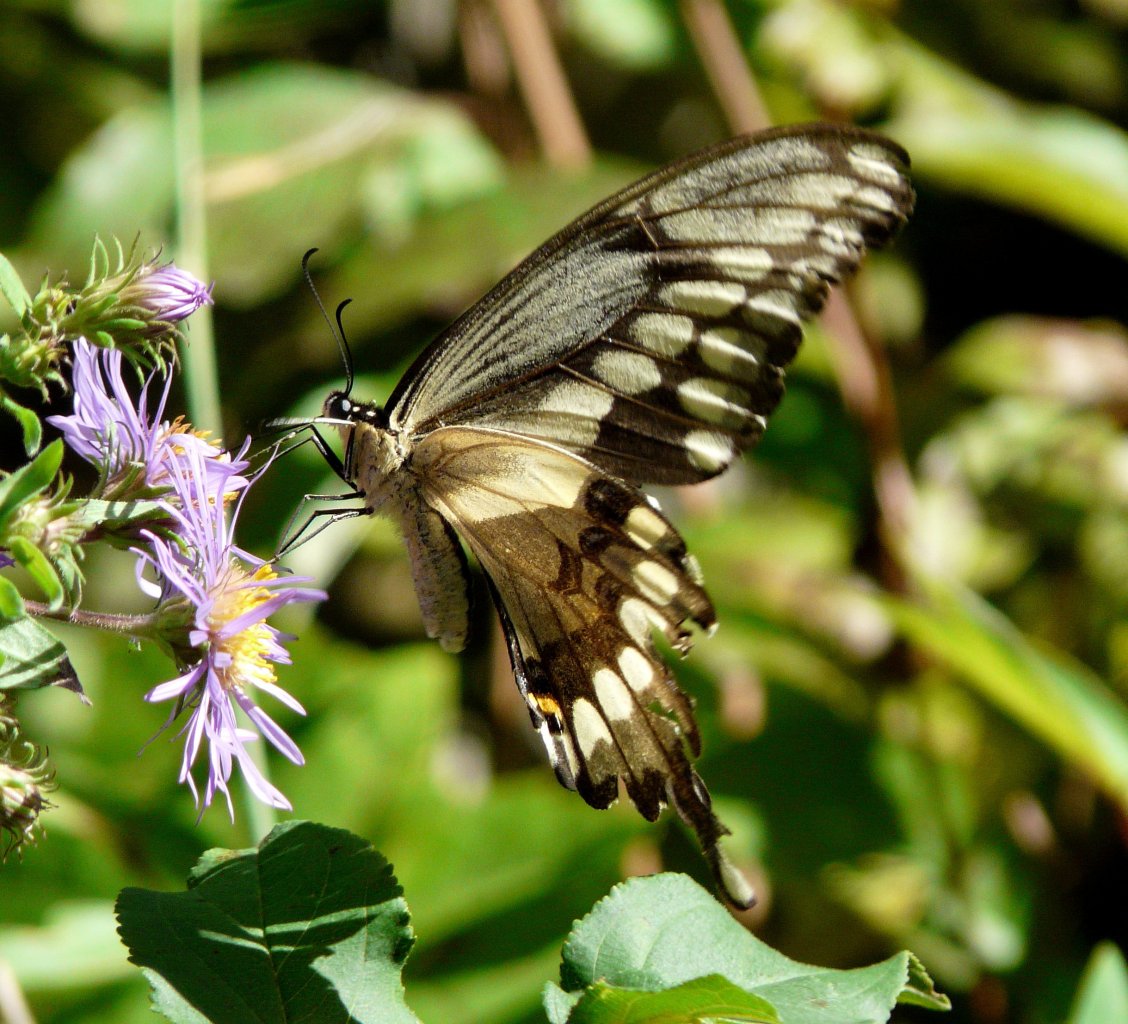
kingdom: Animalia
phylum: Arthropoda
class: Insecta
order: Lepidoptera
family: Papilionidae
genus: Papilio
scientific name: Papilio cresphontes
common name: Eastern Giant Swallowtail
